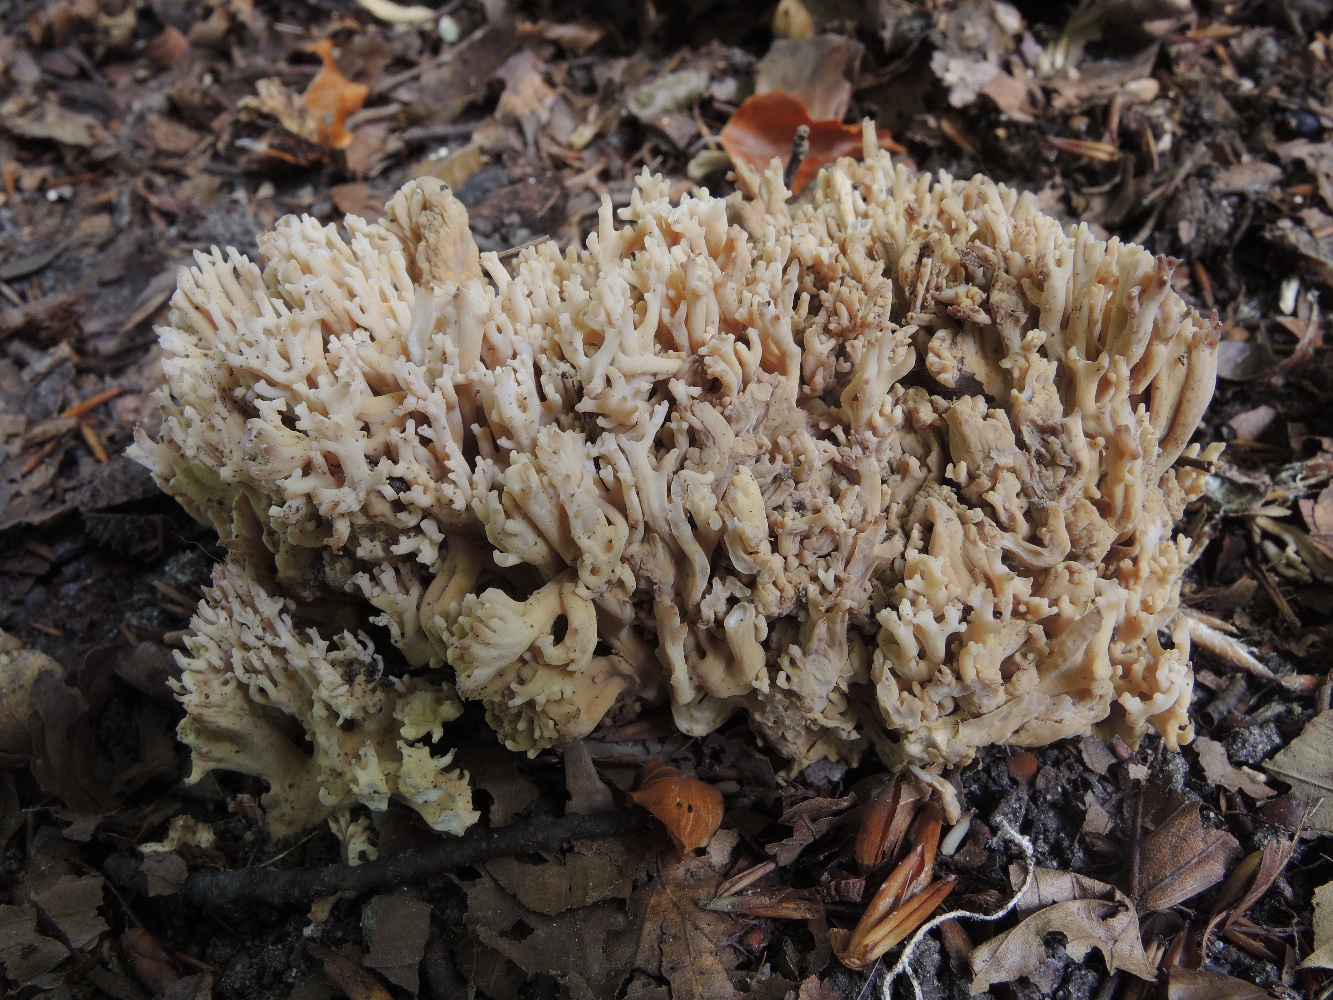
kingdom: Fungi
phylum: Basidiomycota
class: Agaricomycetes
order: Gomphales
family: Gomphaceae
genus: Ramaria
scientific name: Ramaria
